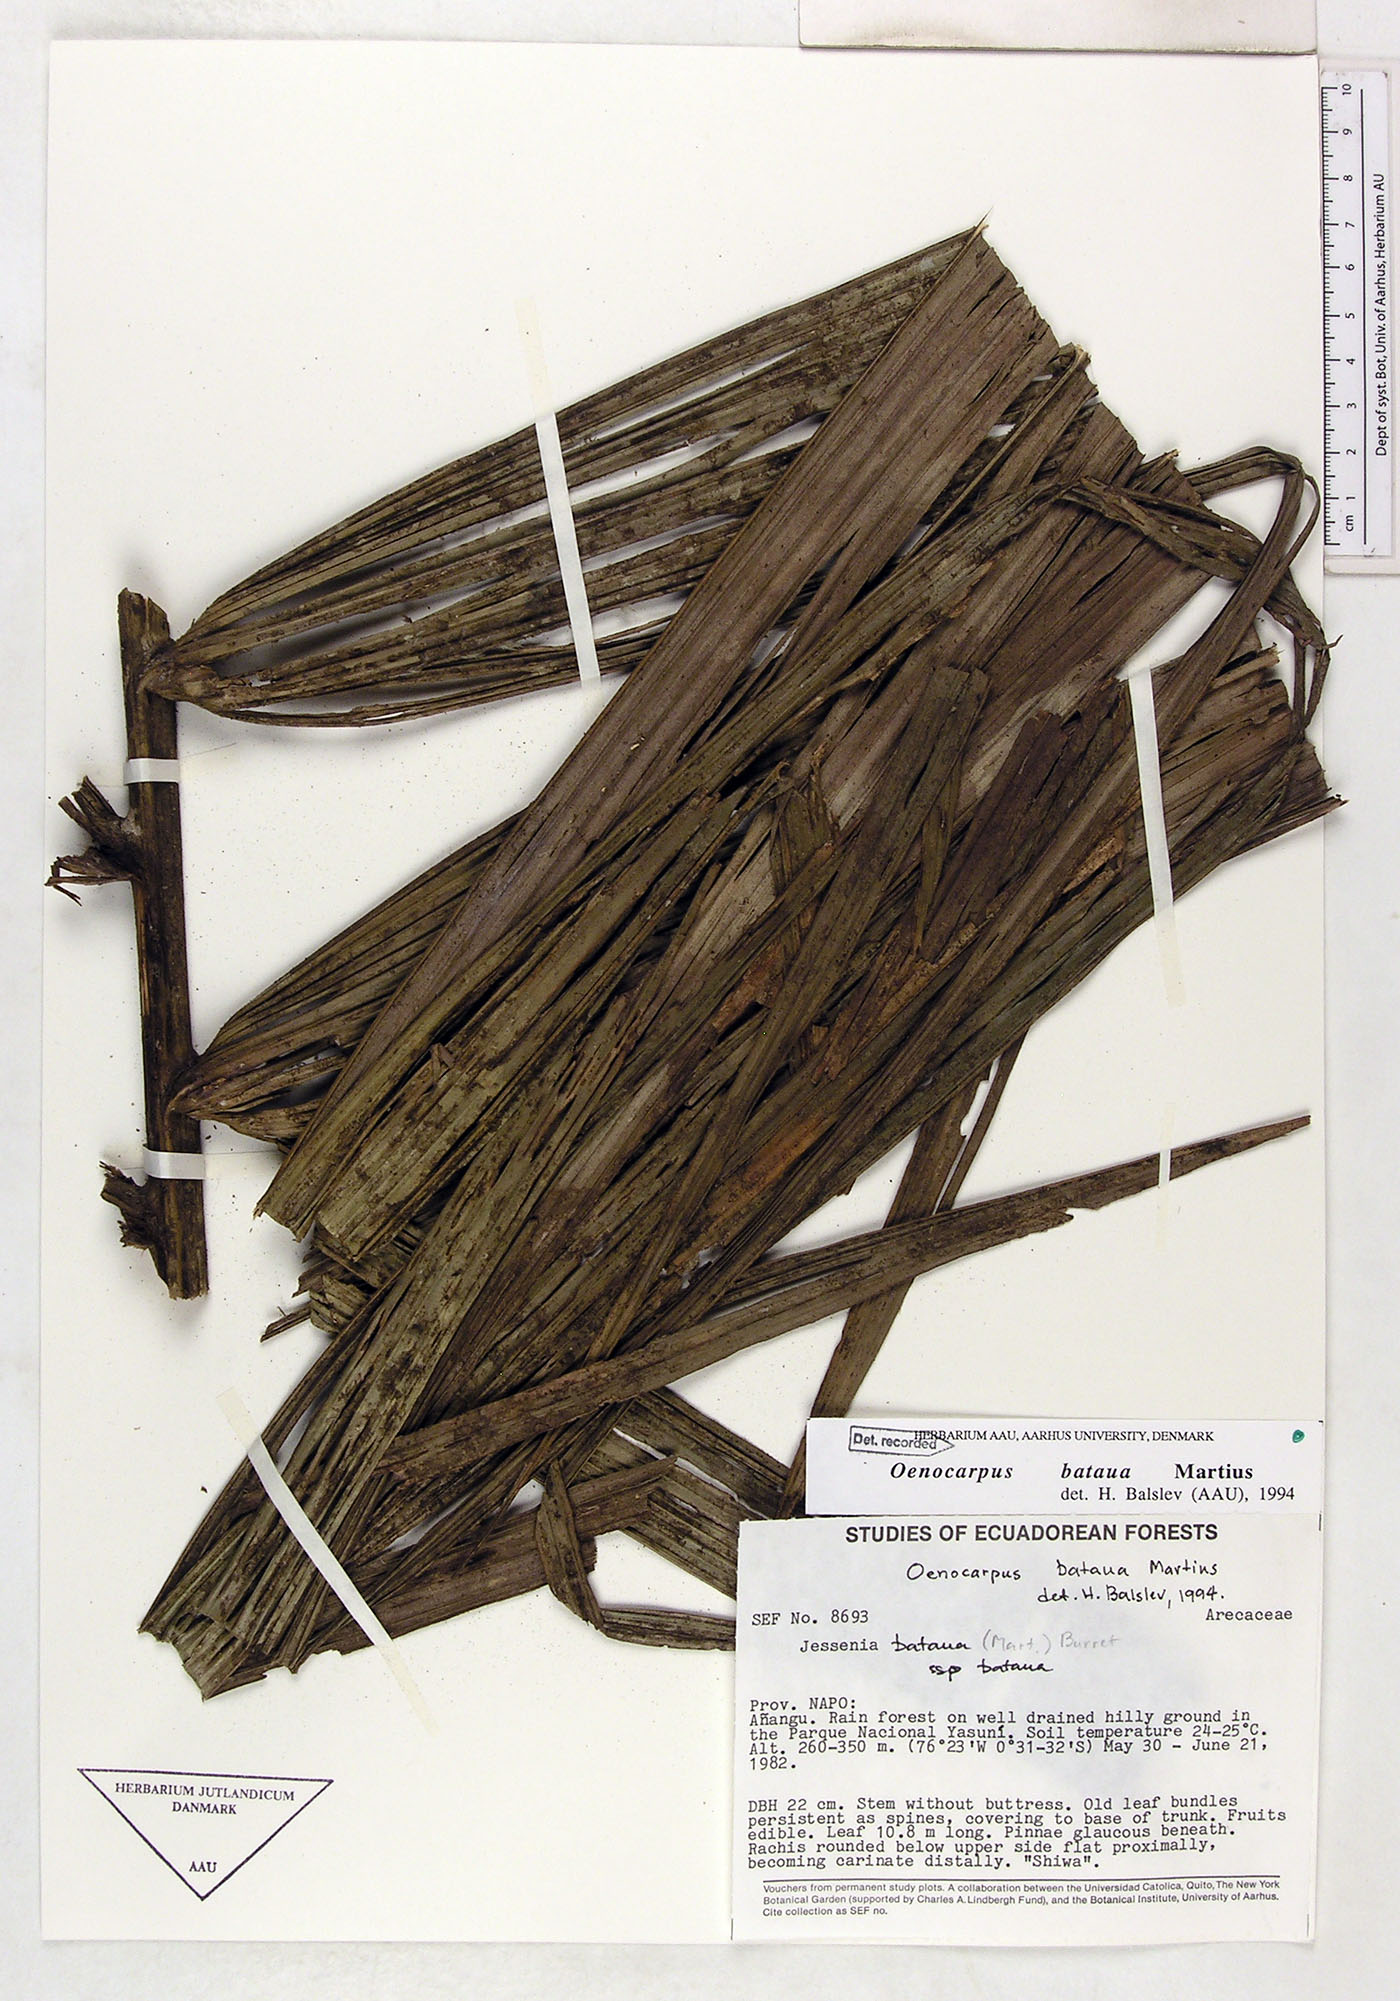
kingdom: Plantae
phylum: Tracheophyta
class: Liliopsida
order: Arecales
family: Arecaceae
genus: Oenocarpus
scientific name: Oenocarpus bataua
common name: Bataua palm
